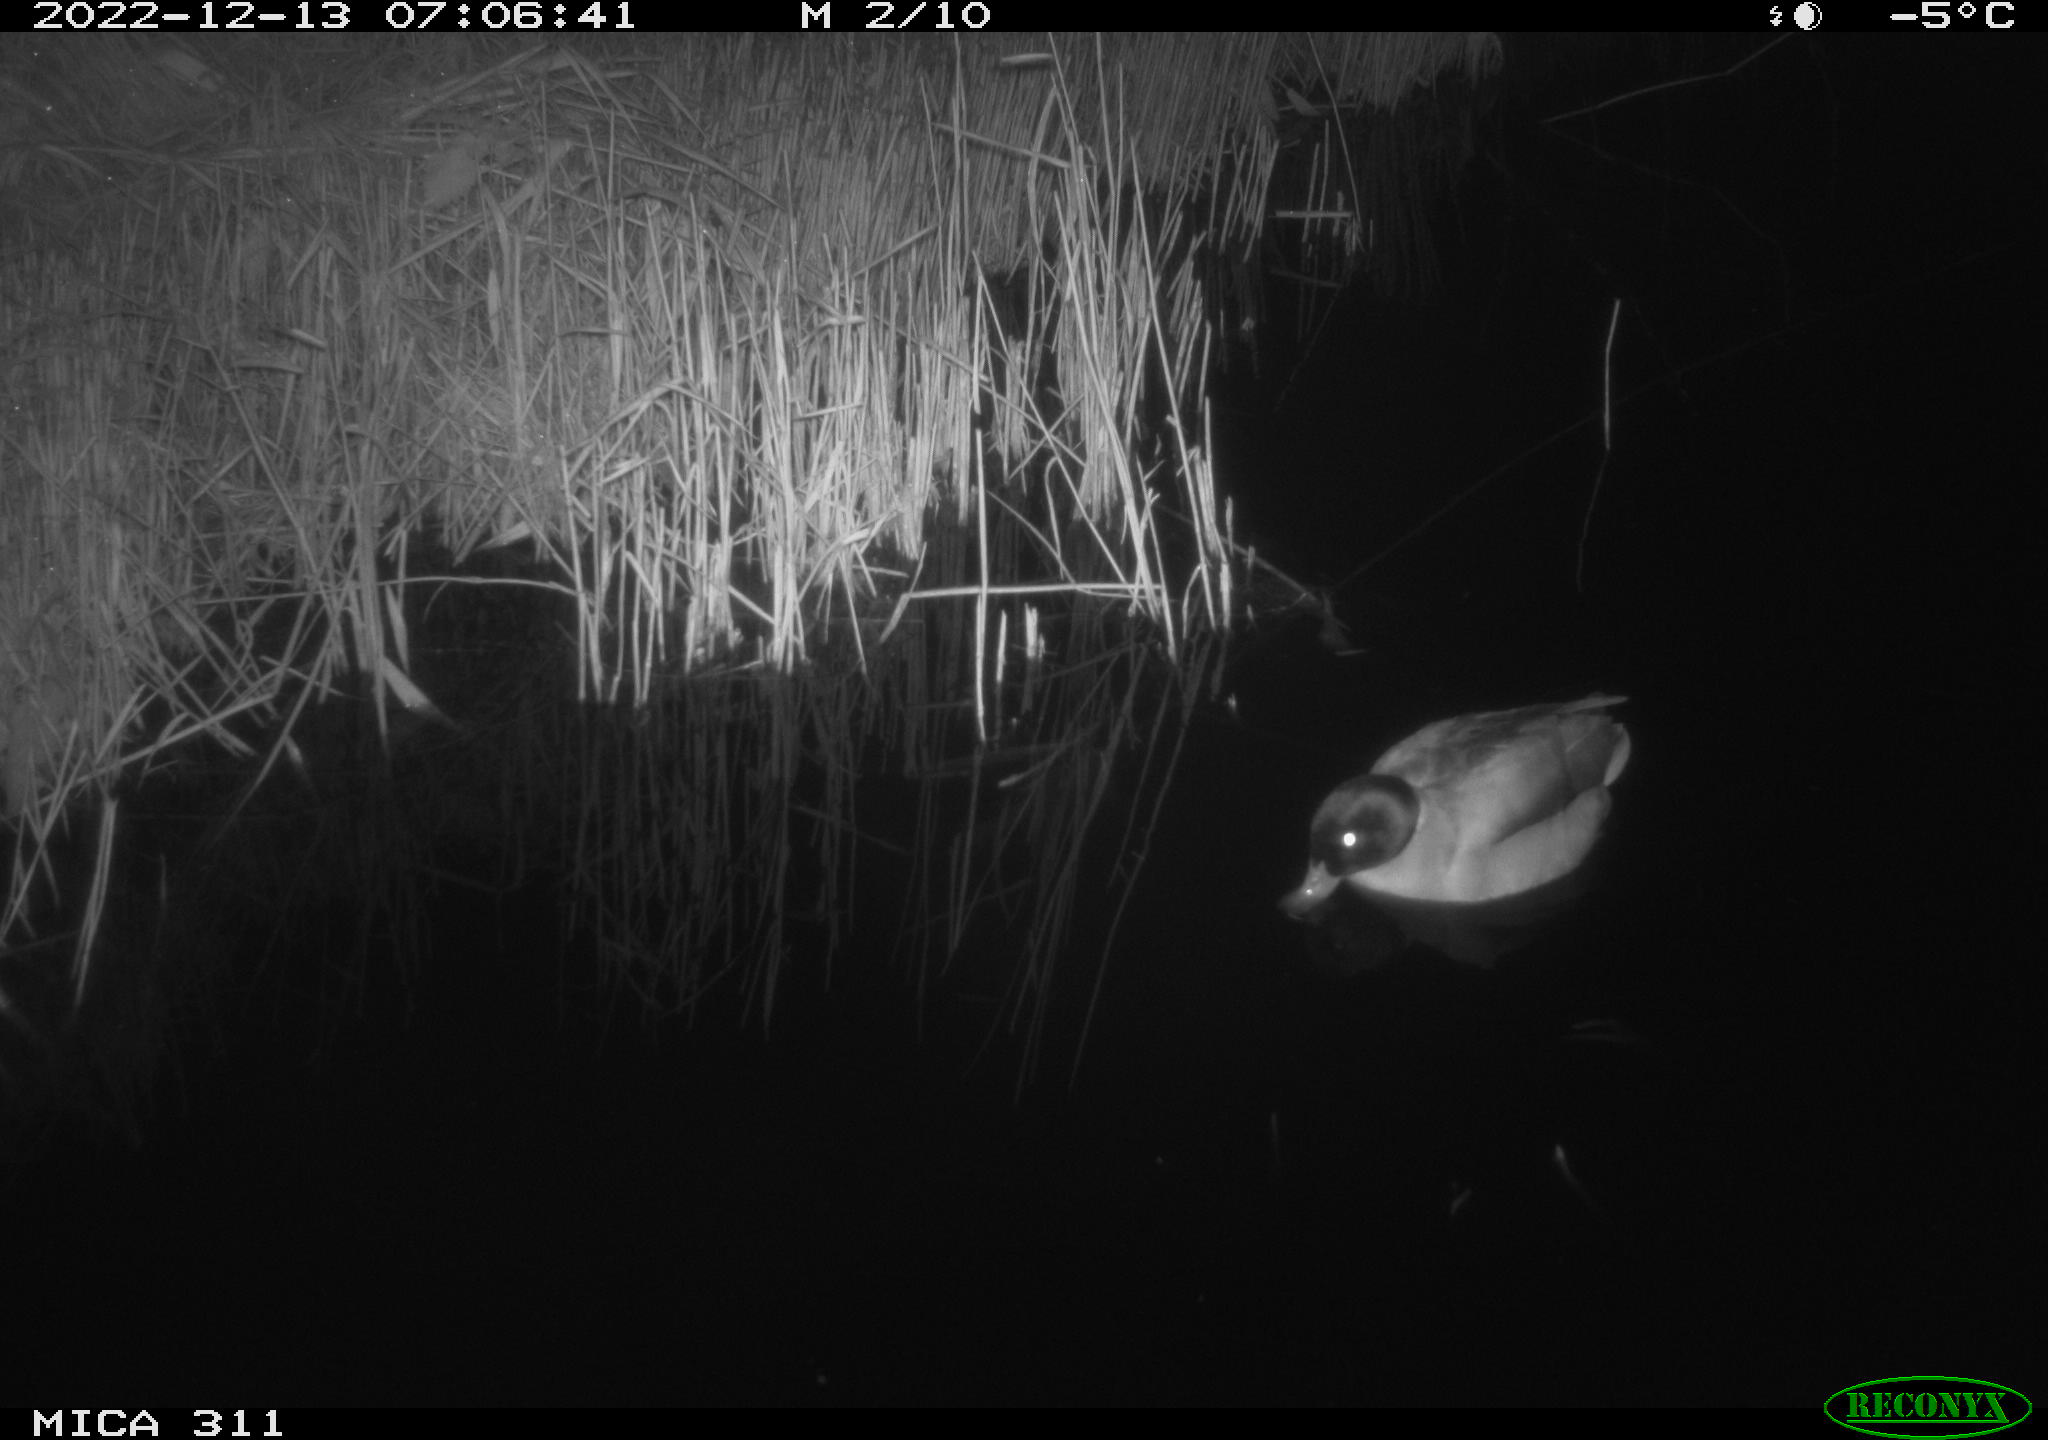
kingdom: Animalia
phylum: Chordata
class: Aves
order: Anseriformes
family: Anatidae
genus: Anas
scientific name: Anas
